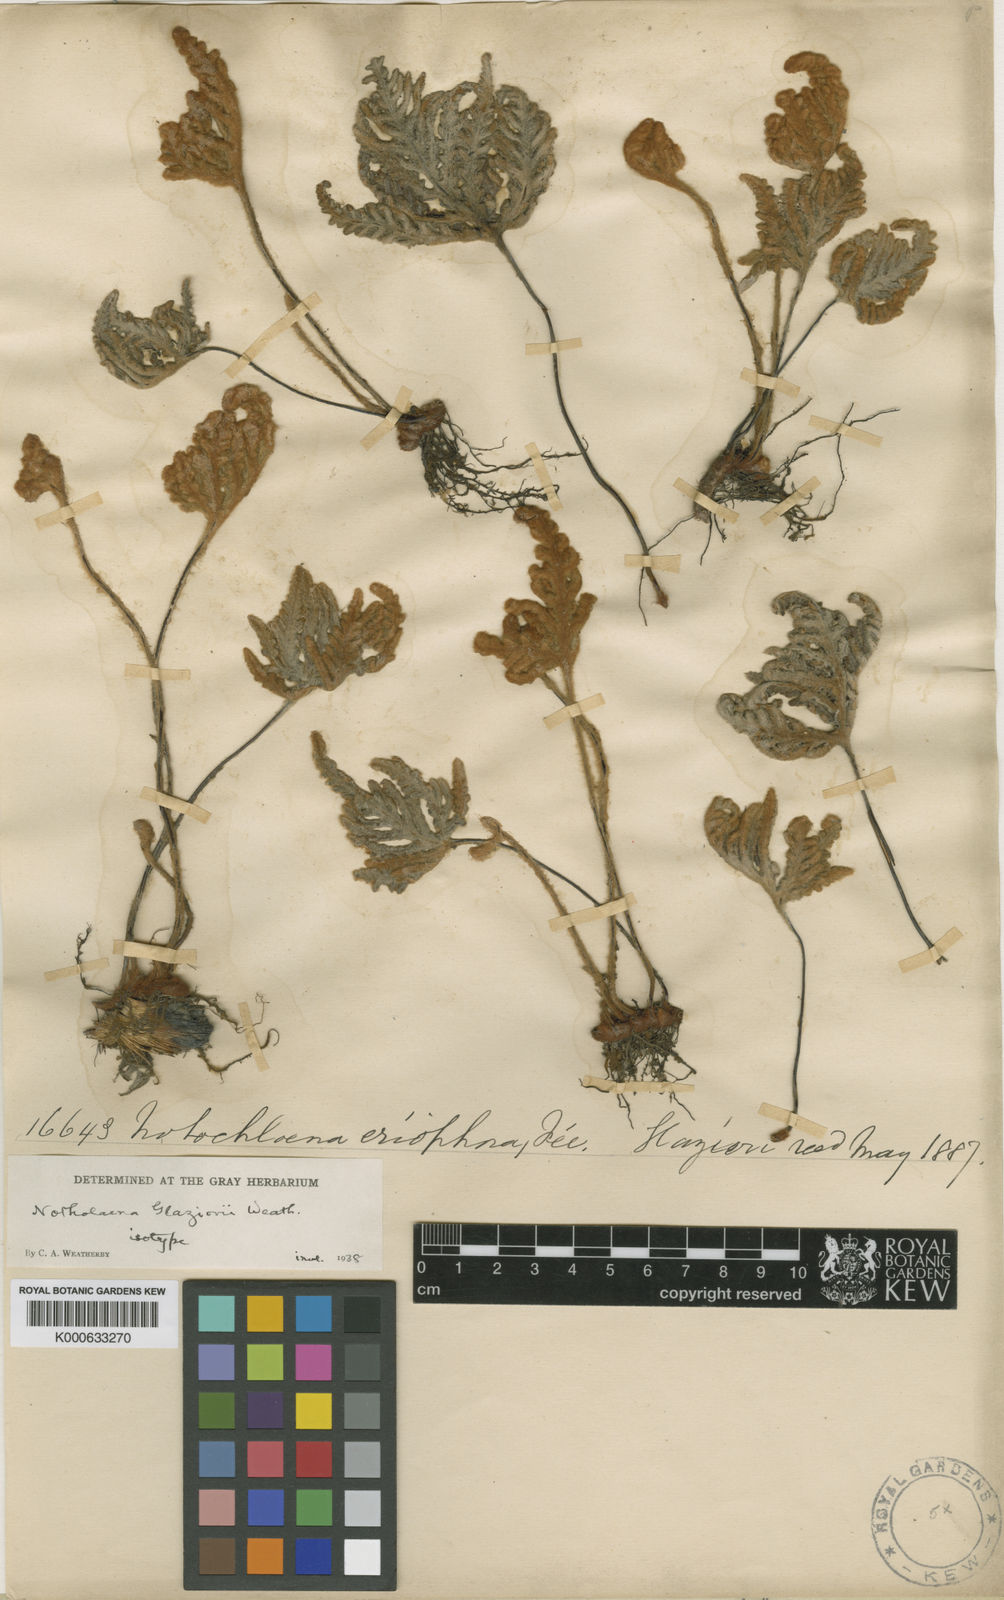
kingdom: Plantae
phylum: Tracheophyta
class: Polypodiopsida
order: Polypodiales
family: Pteridaceae
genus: Cheilanthes
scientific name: Cheilanthes
